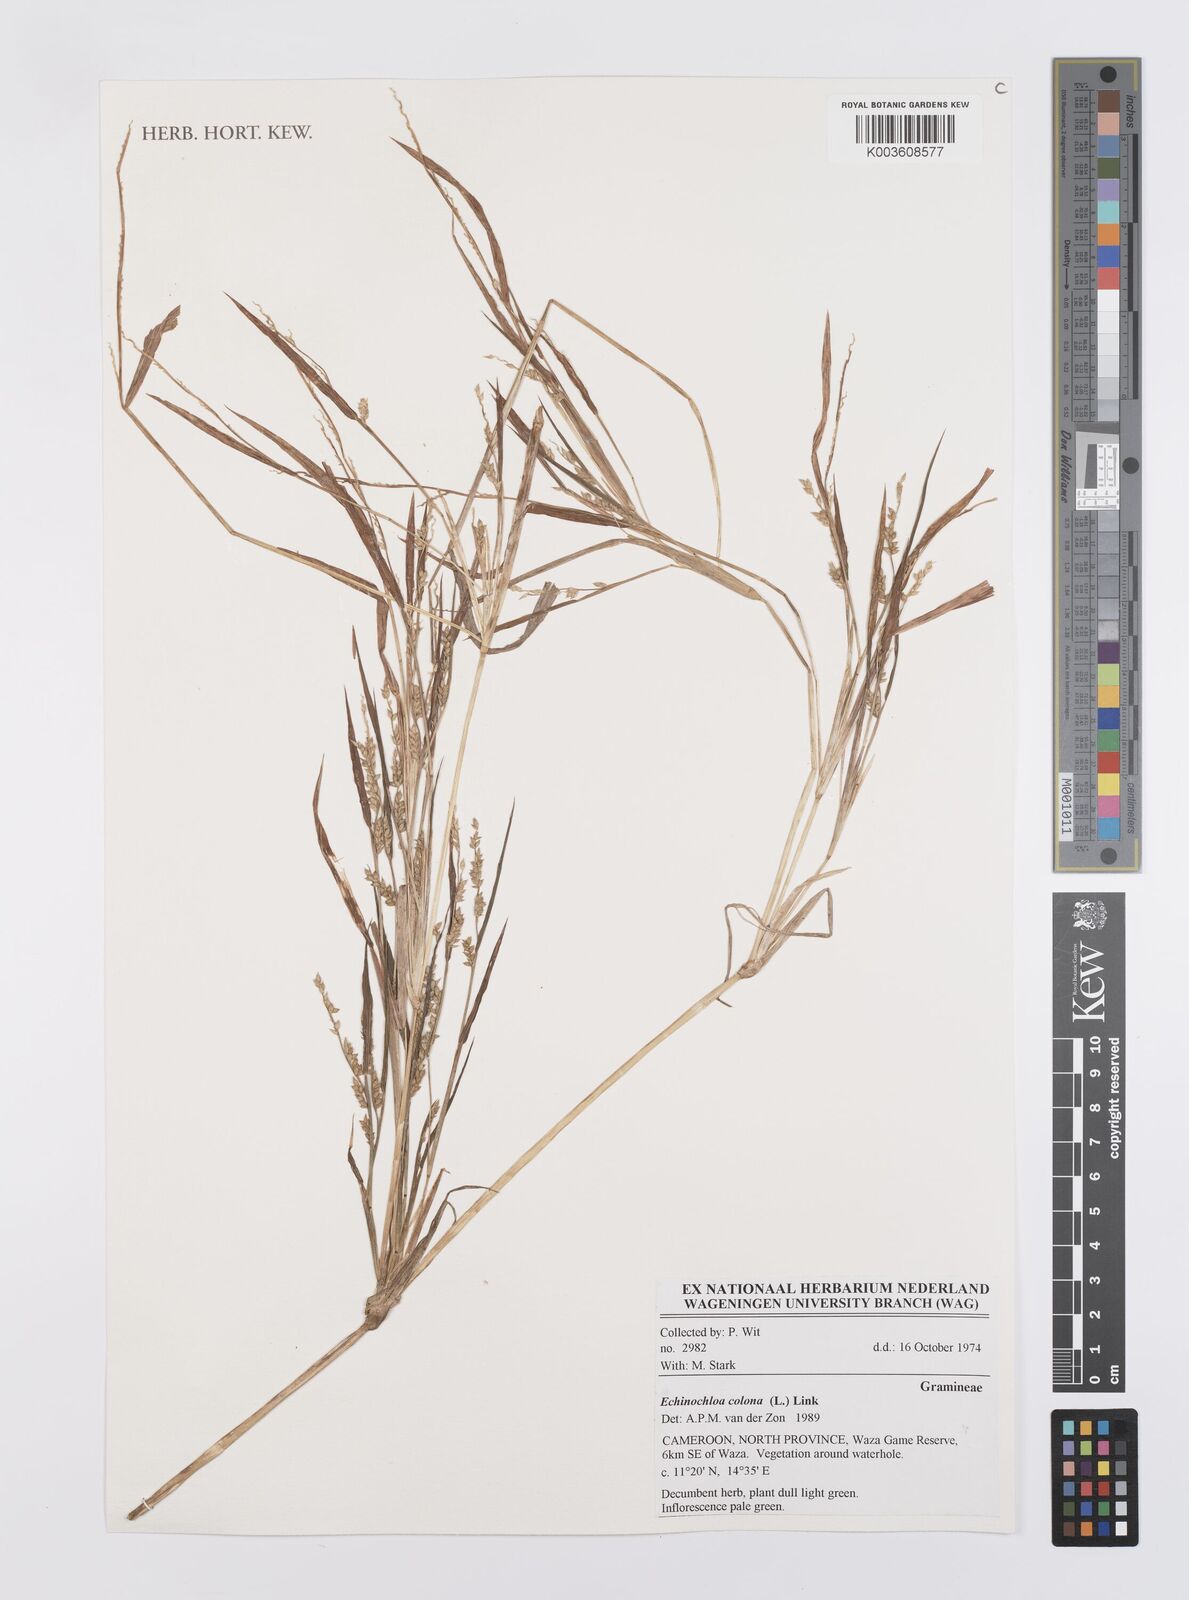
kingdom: Plantae
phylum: Tracheophyta
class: Liliopsida
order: Poales
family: Poaceae
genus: Echinochloa
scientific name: Echinochloa colonum
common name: Jungle rice
